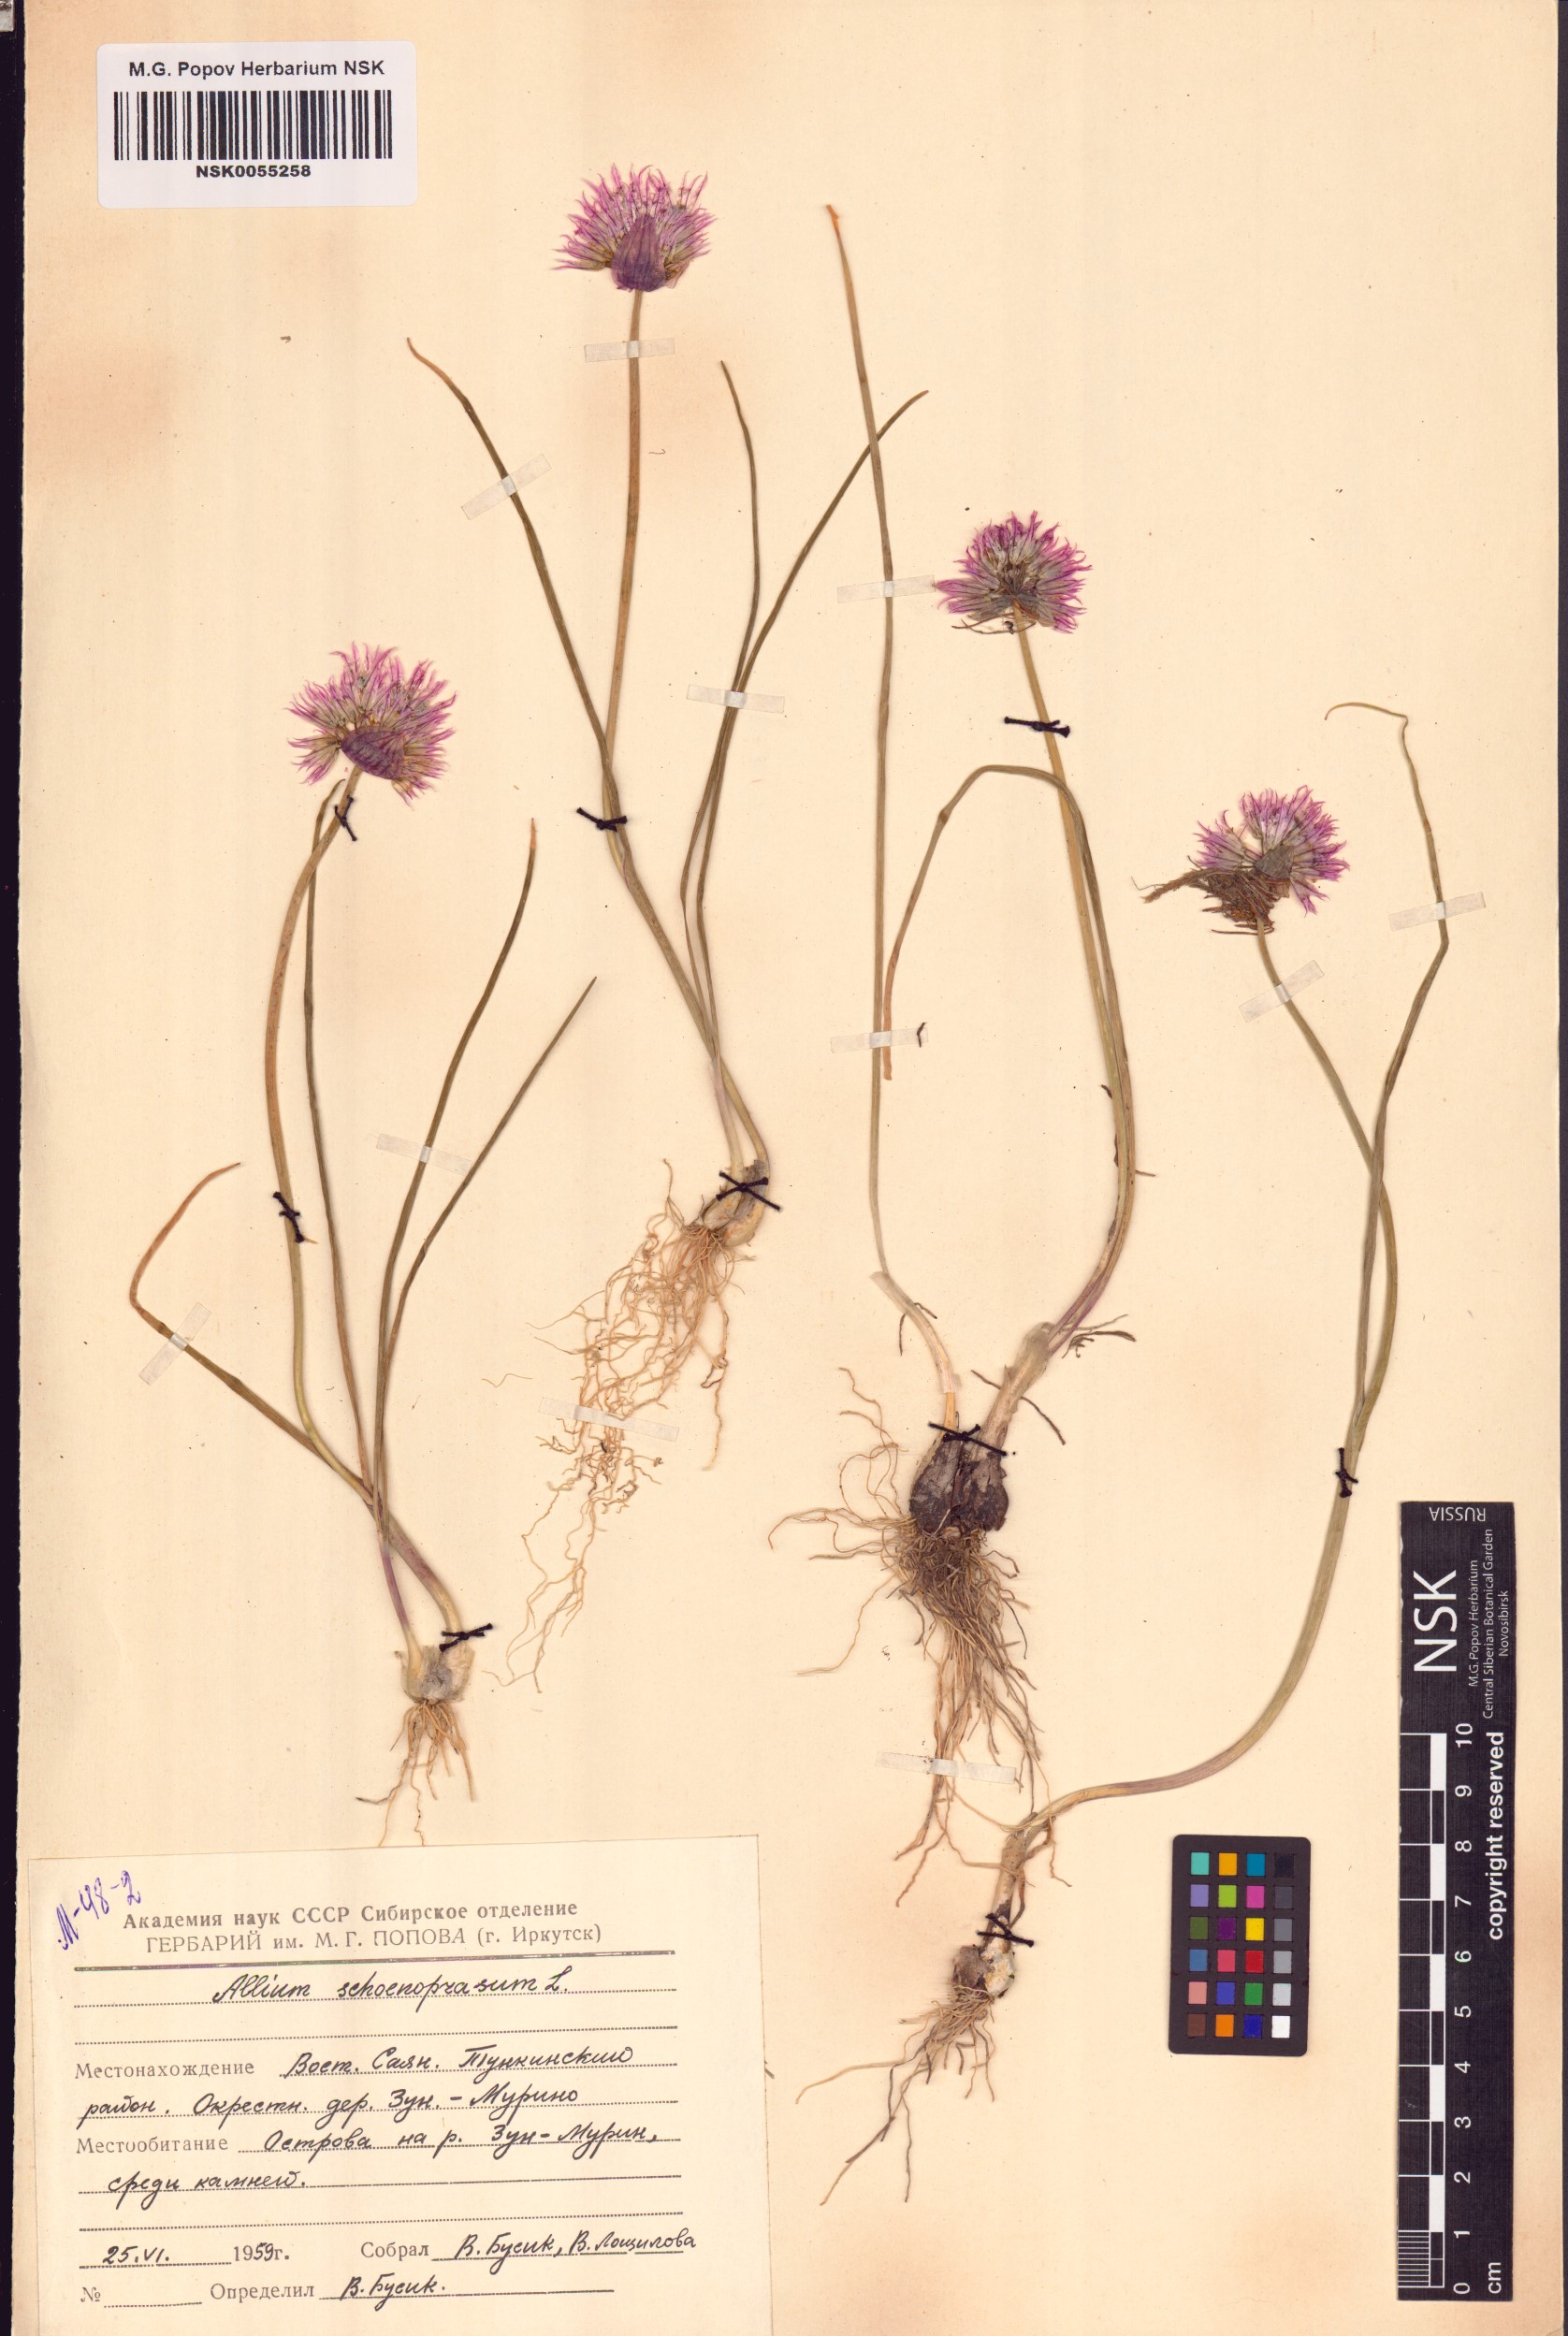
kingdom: Plantae
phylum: Tracheophyta
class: Liliopsida
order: Asparagales
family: Amaryllidaceae
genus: Allium
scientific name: Allium schoenoprasum
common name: Chives
